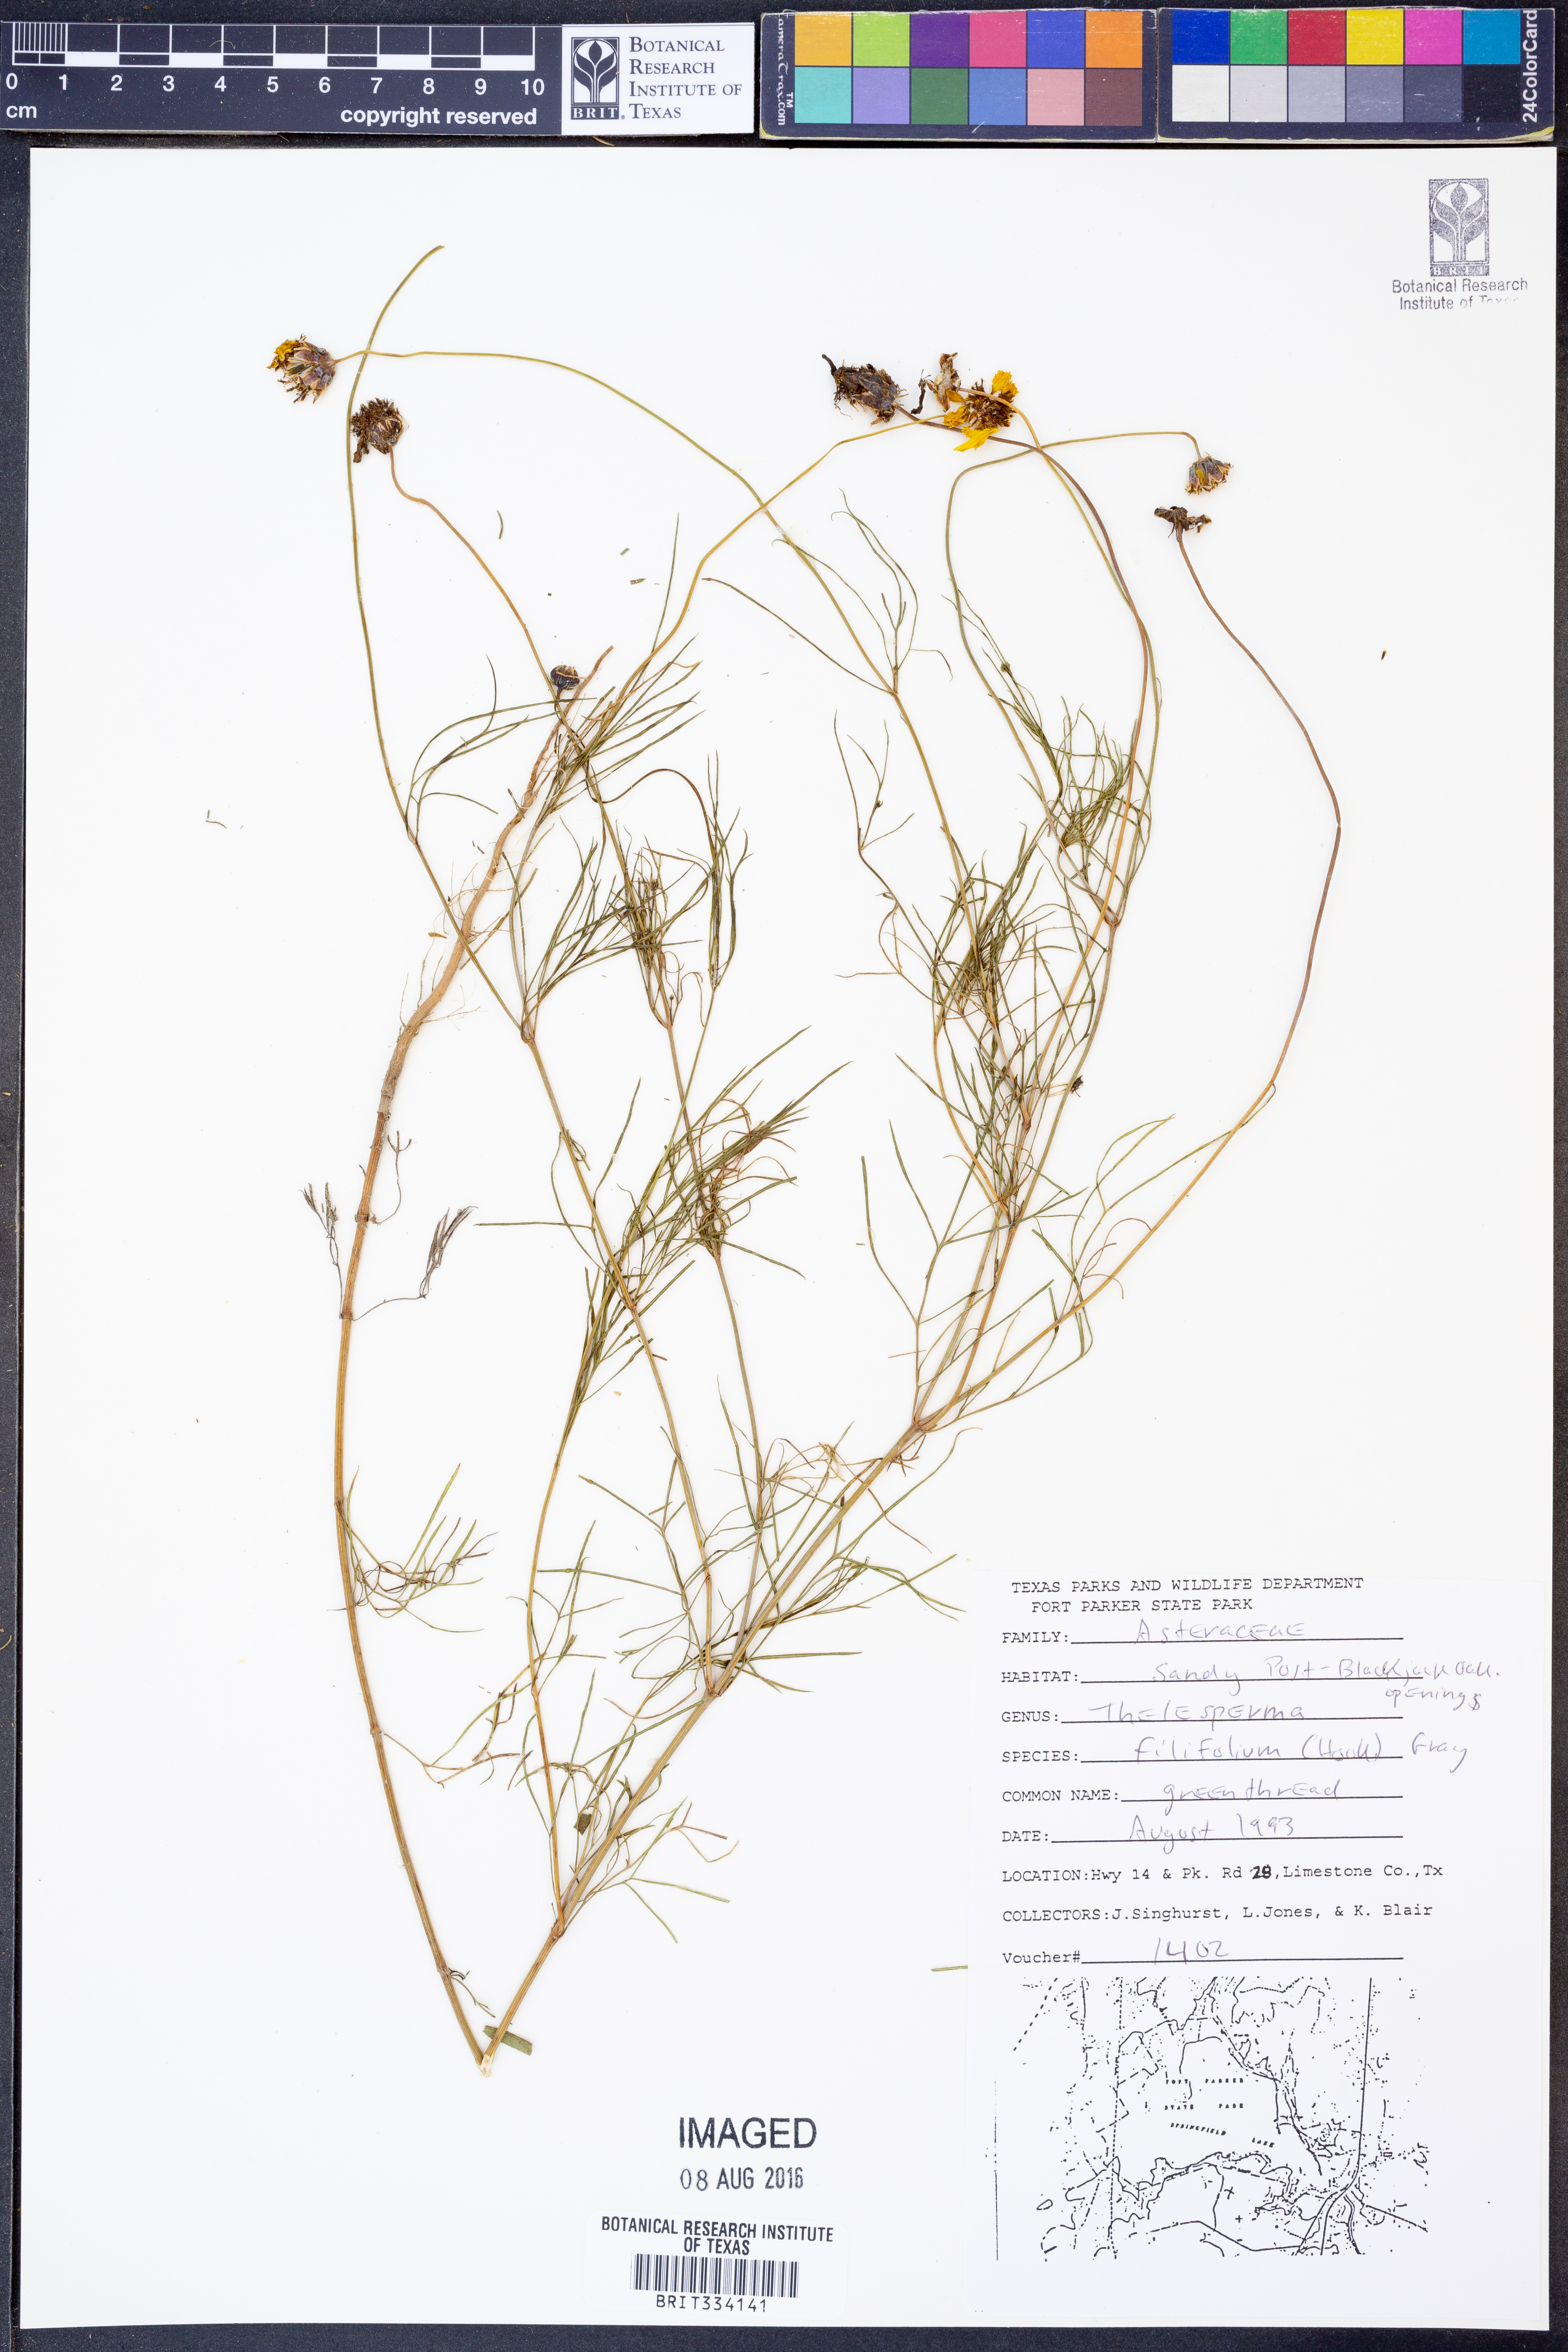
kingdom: Plantae
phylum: Tracheophyta
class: Magnoliopsida
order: Asterales
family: Asteraceae
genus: Thelesperma
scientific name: Thelesperma filifolium
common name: Stiff greenthread
